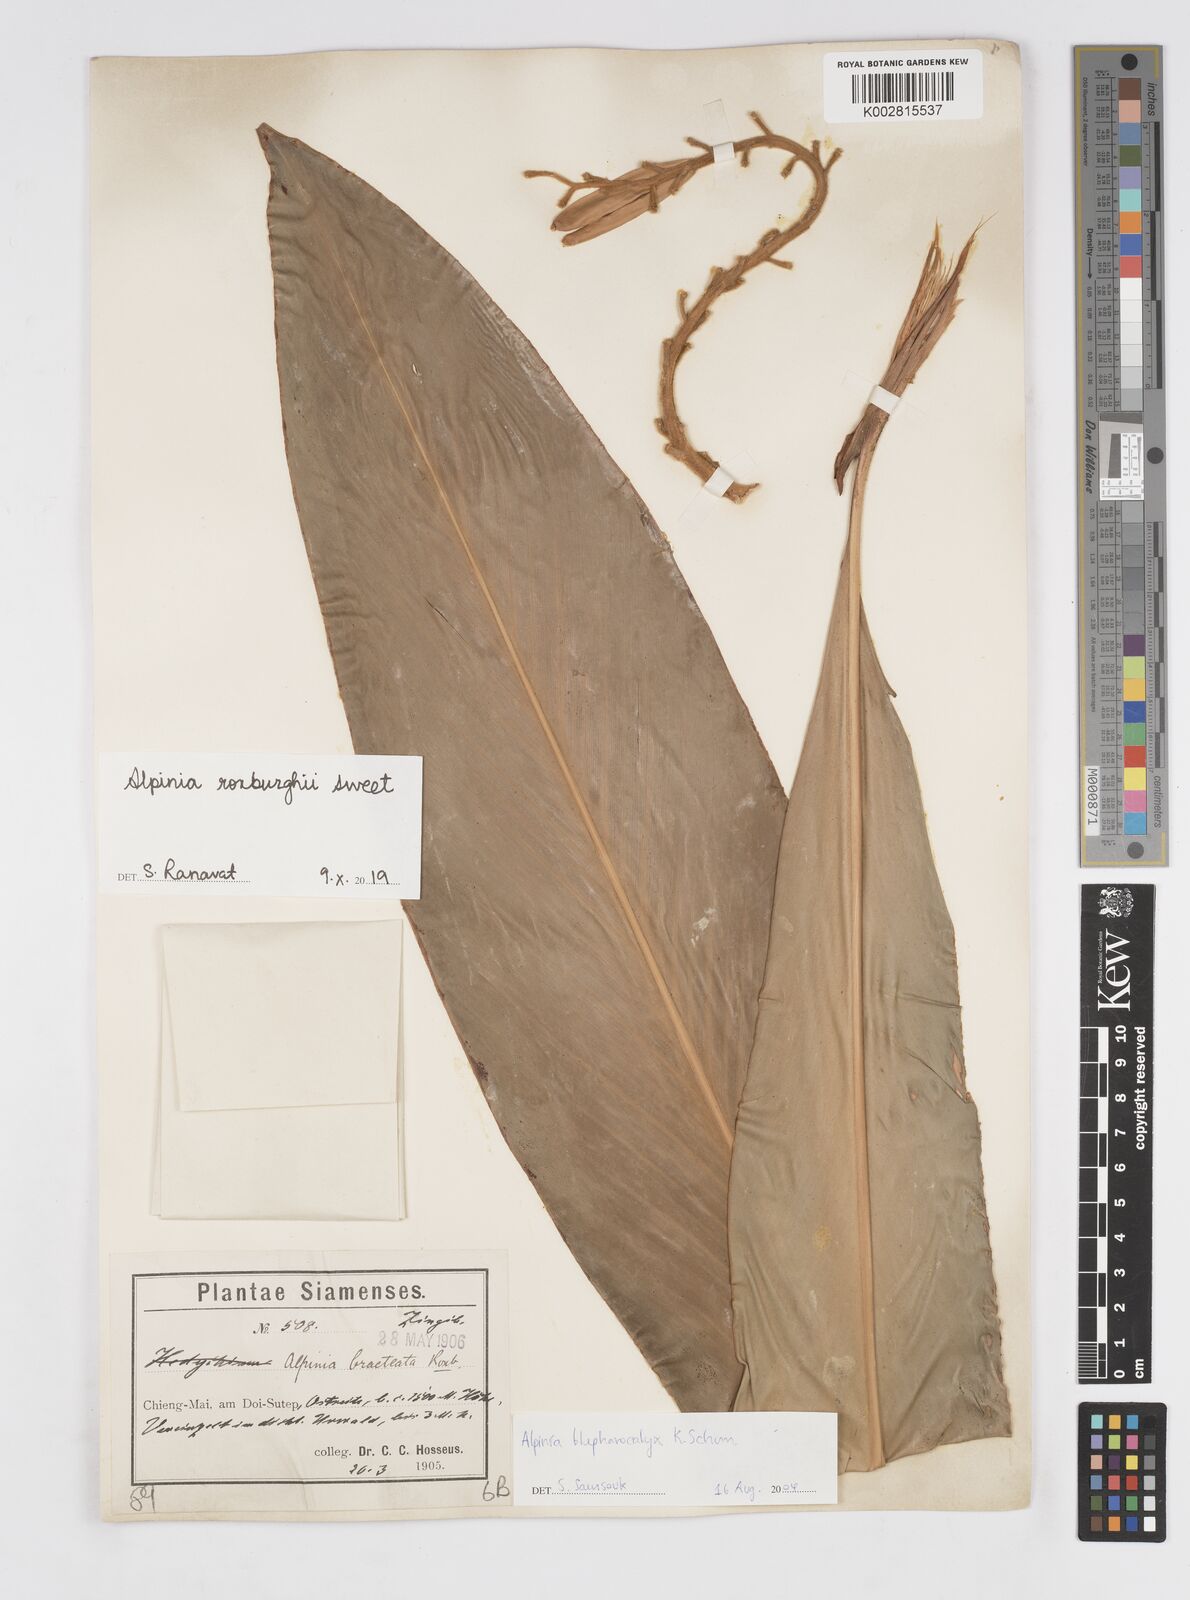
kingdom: Plantae
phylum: Tracheophyta
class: Liliopsida
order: Zingiberales
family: Zingiberaceae
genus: Alpinia
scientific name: Alpinia roxburghii
